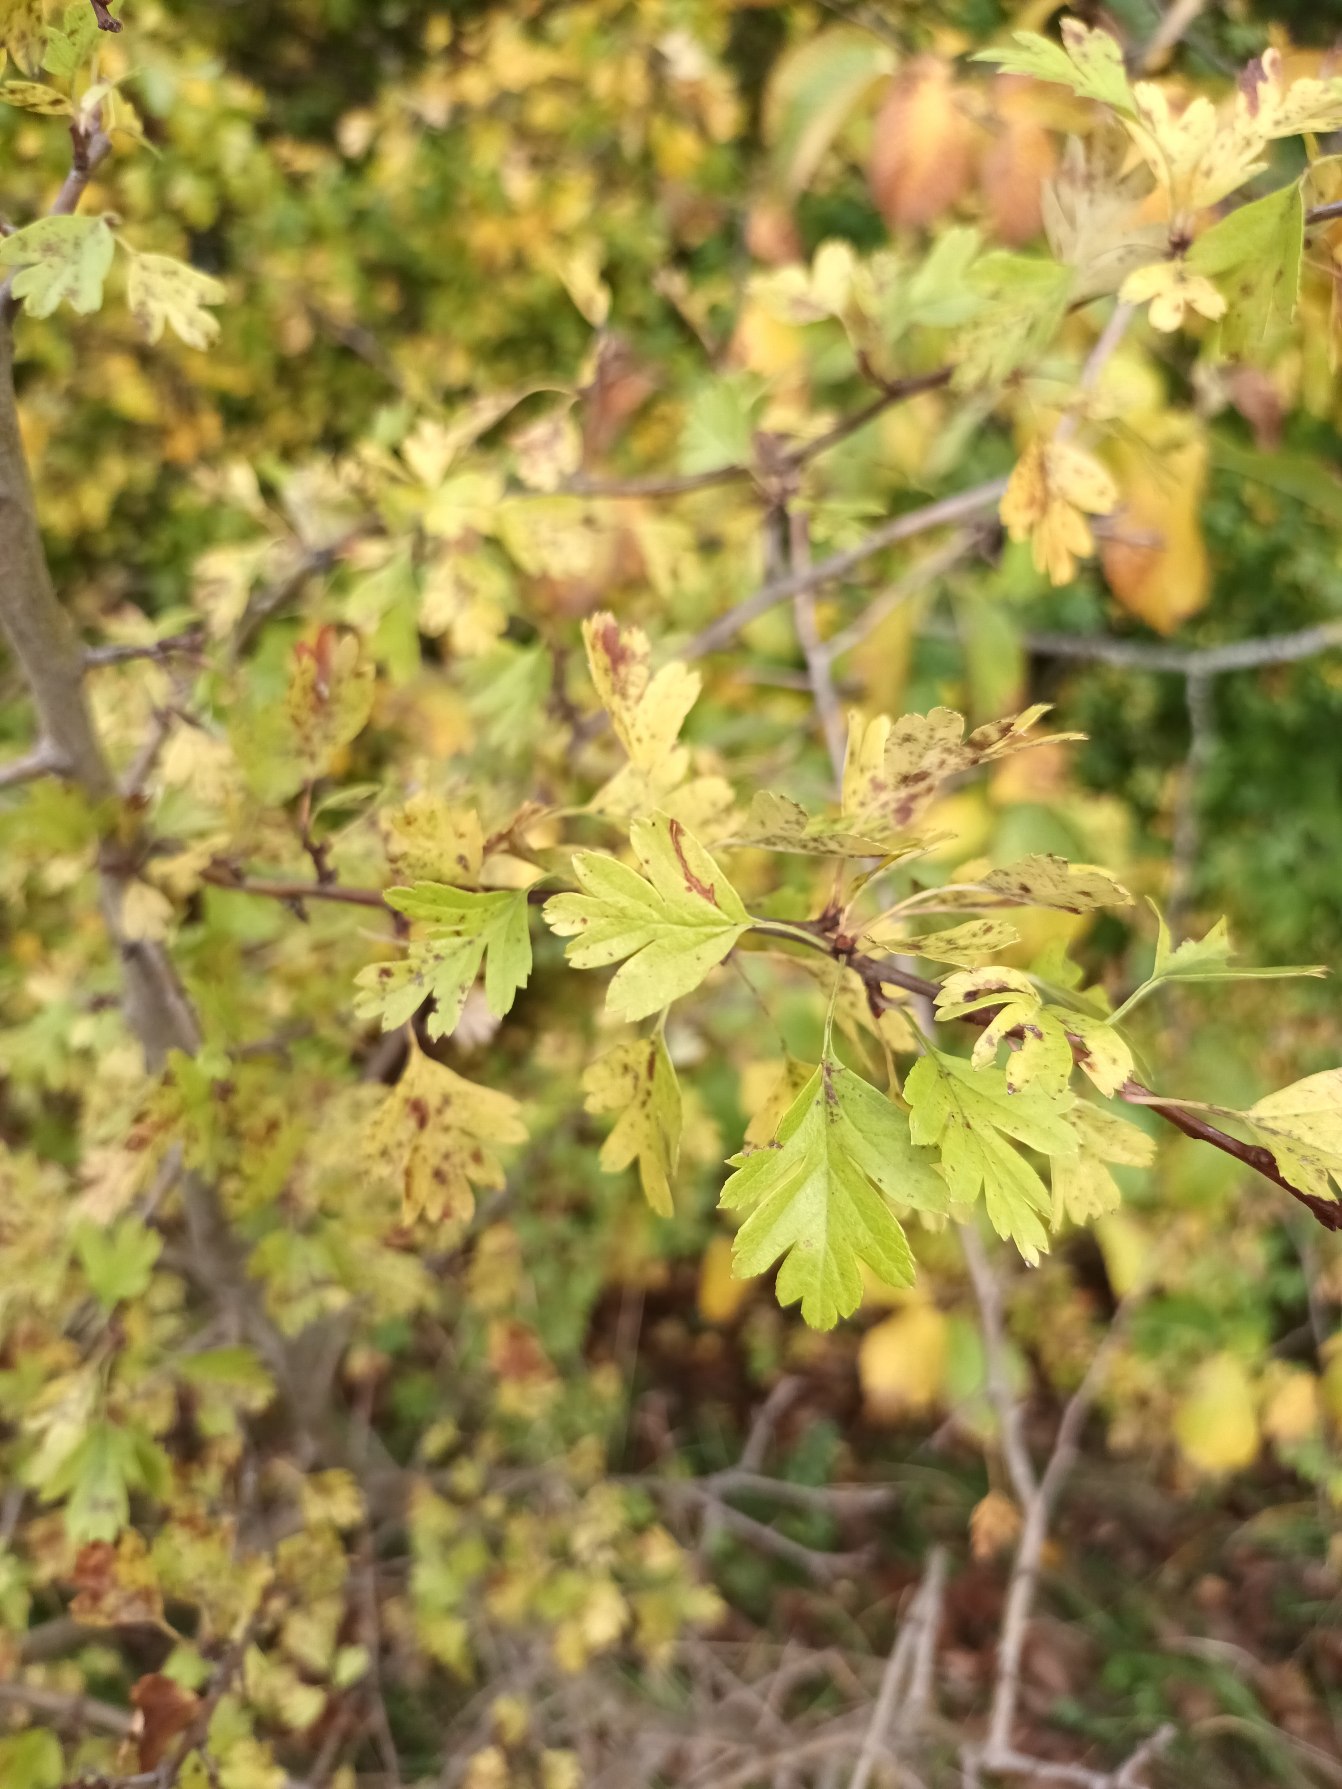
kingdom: Plantae
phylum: Tracheophyta
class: Magnoliopsida
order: Rosales
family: Rosaceae
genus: Crataegus
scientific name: Crataegus monogyna
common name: Engriflet hvidtjørn
